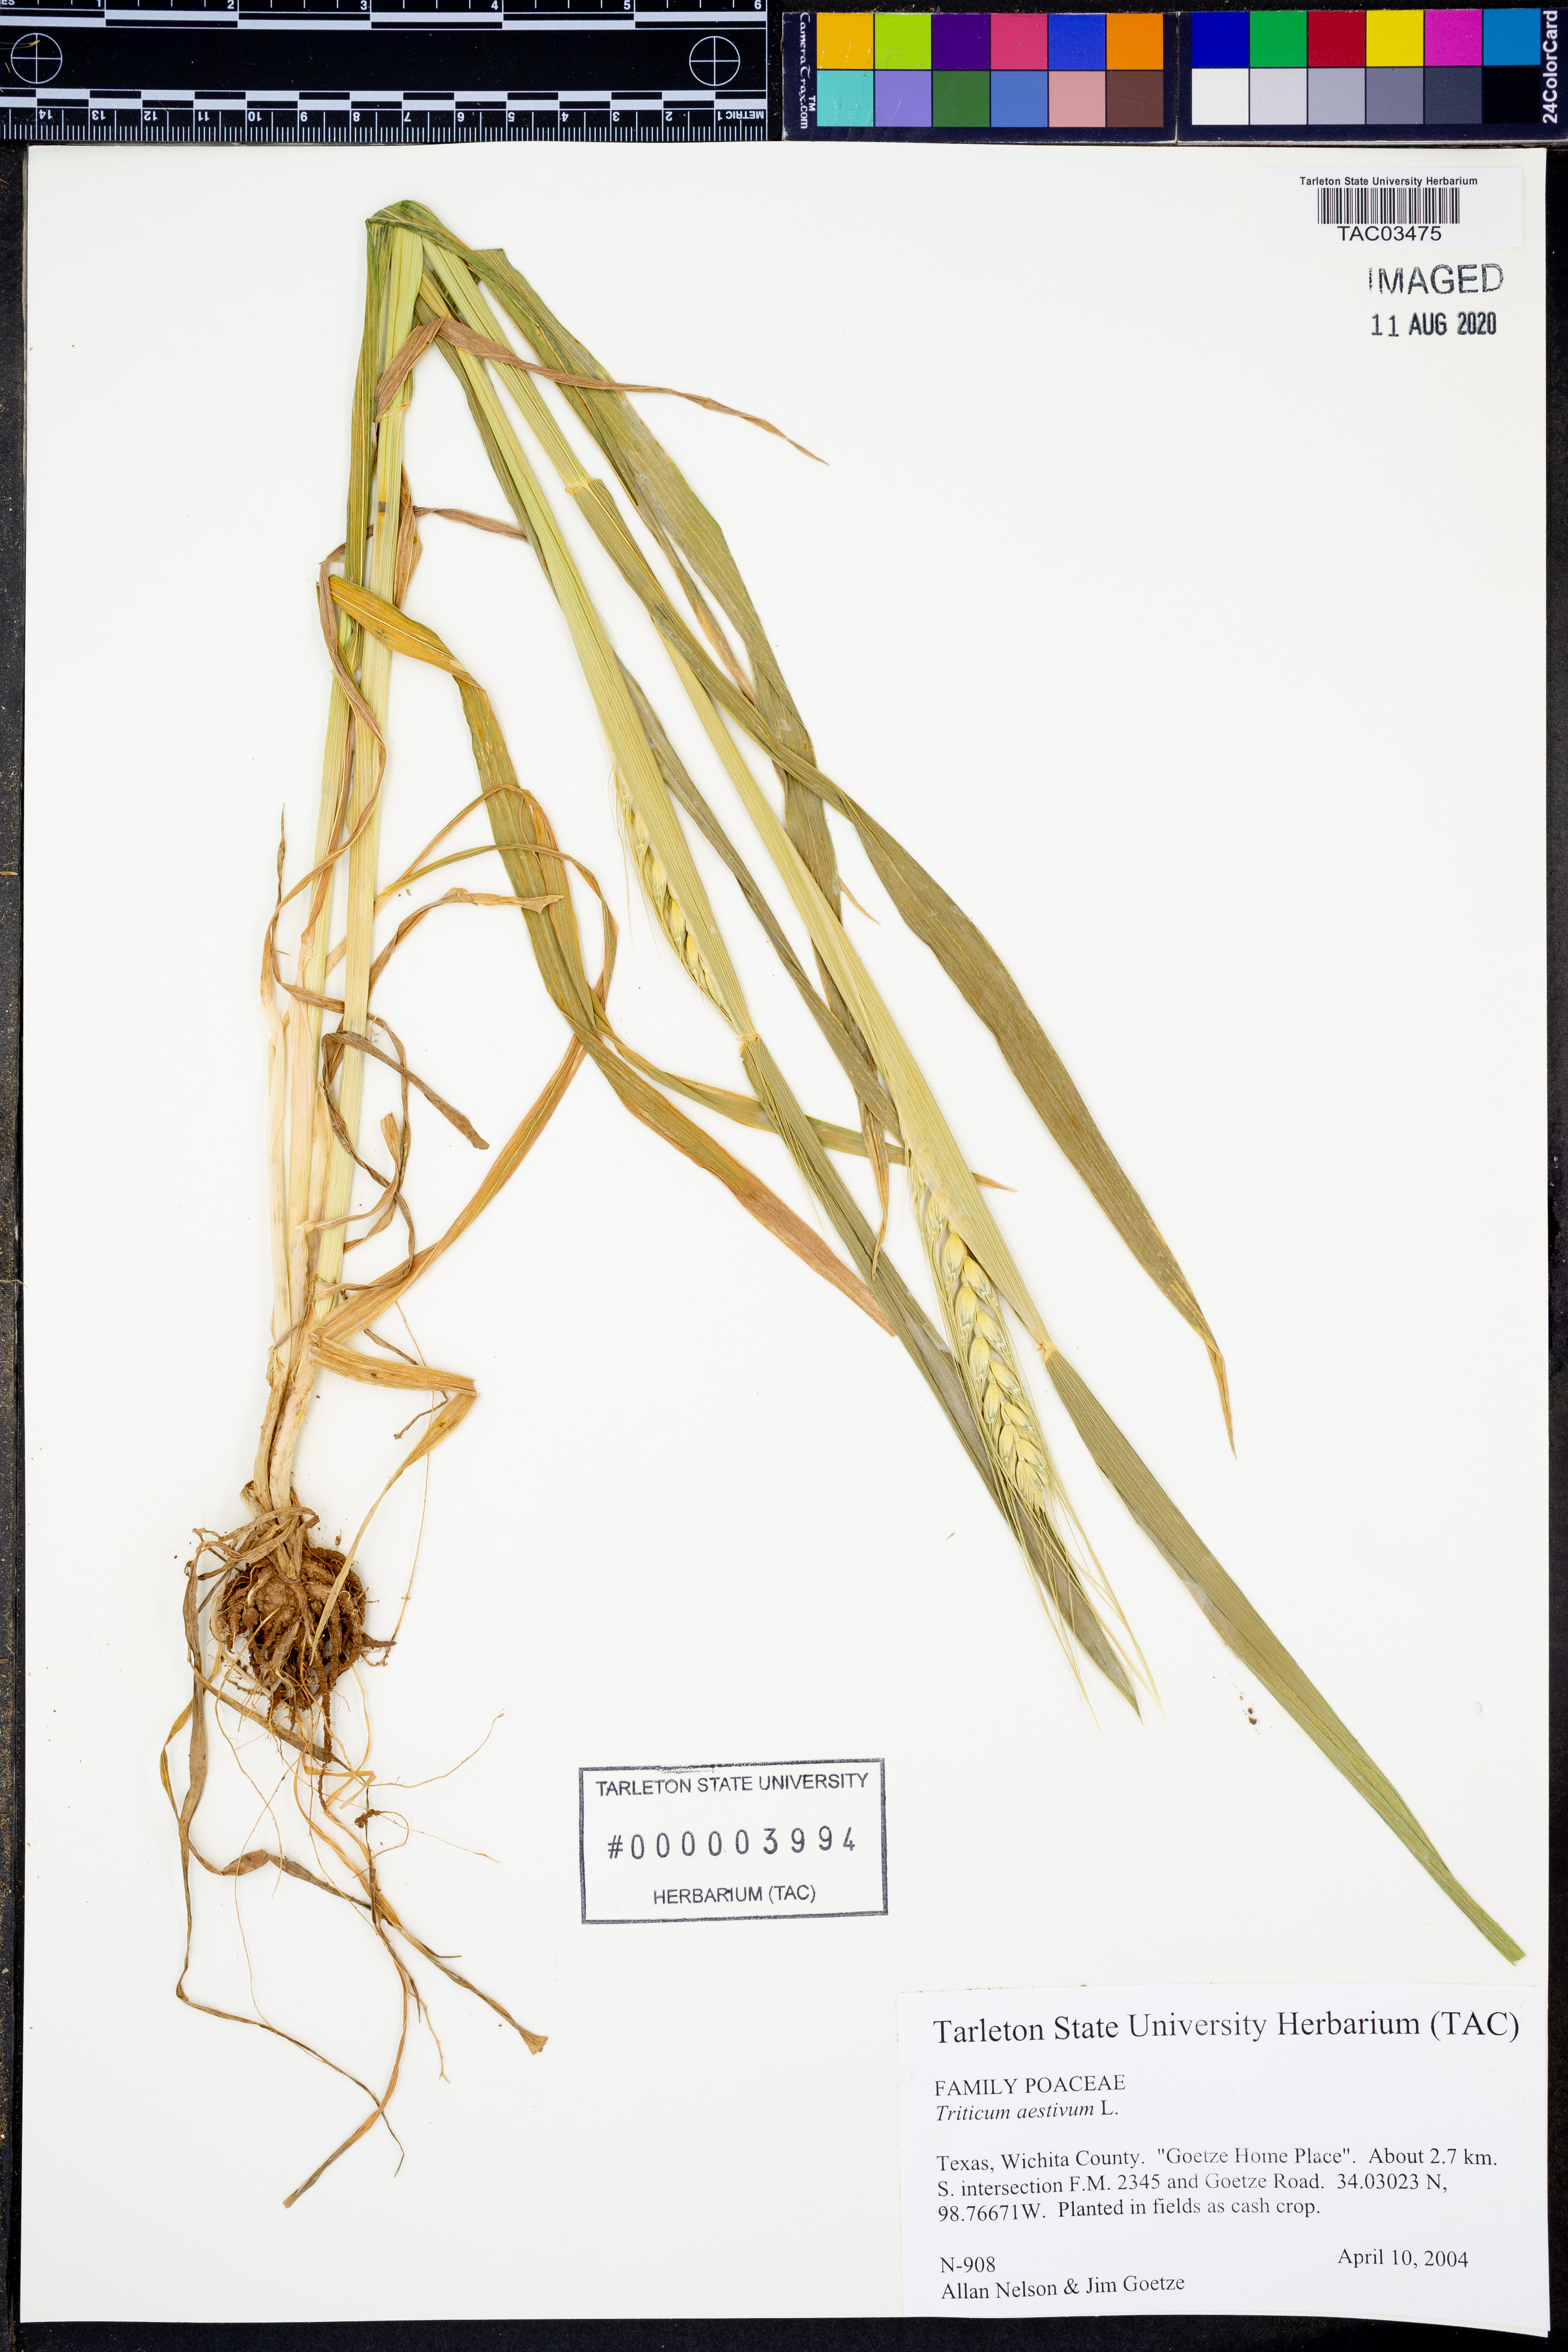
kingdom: Plantae
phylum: Tracheophyta
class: Liliopsida
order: Poales
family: Poaceae
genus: Triticum
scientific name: Triticum aestivum
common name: Common wheat
